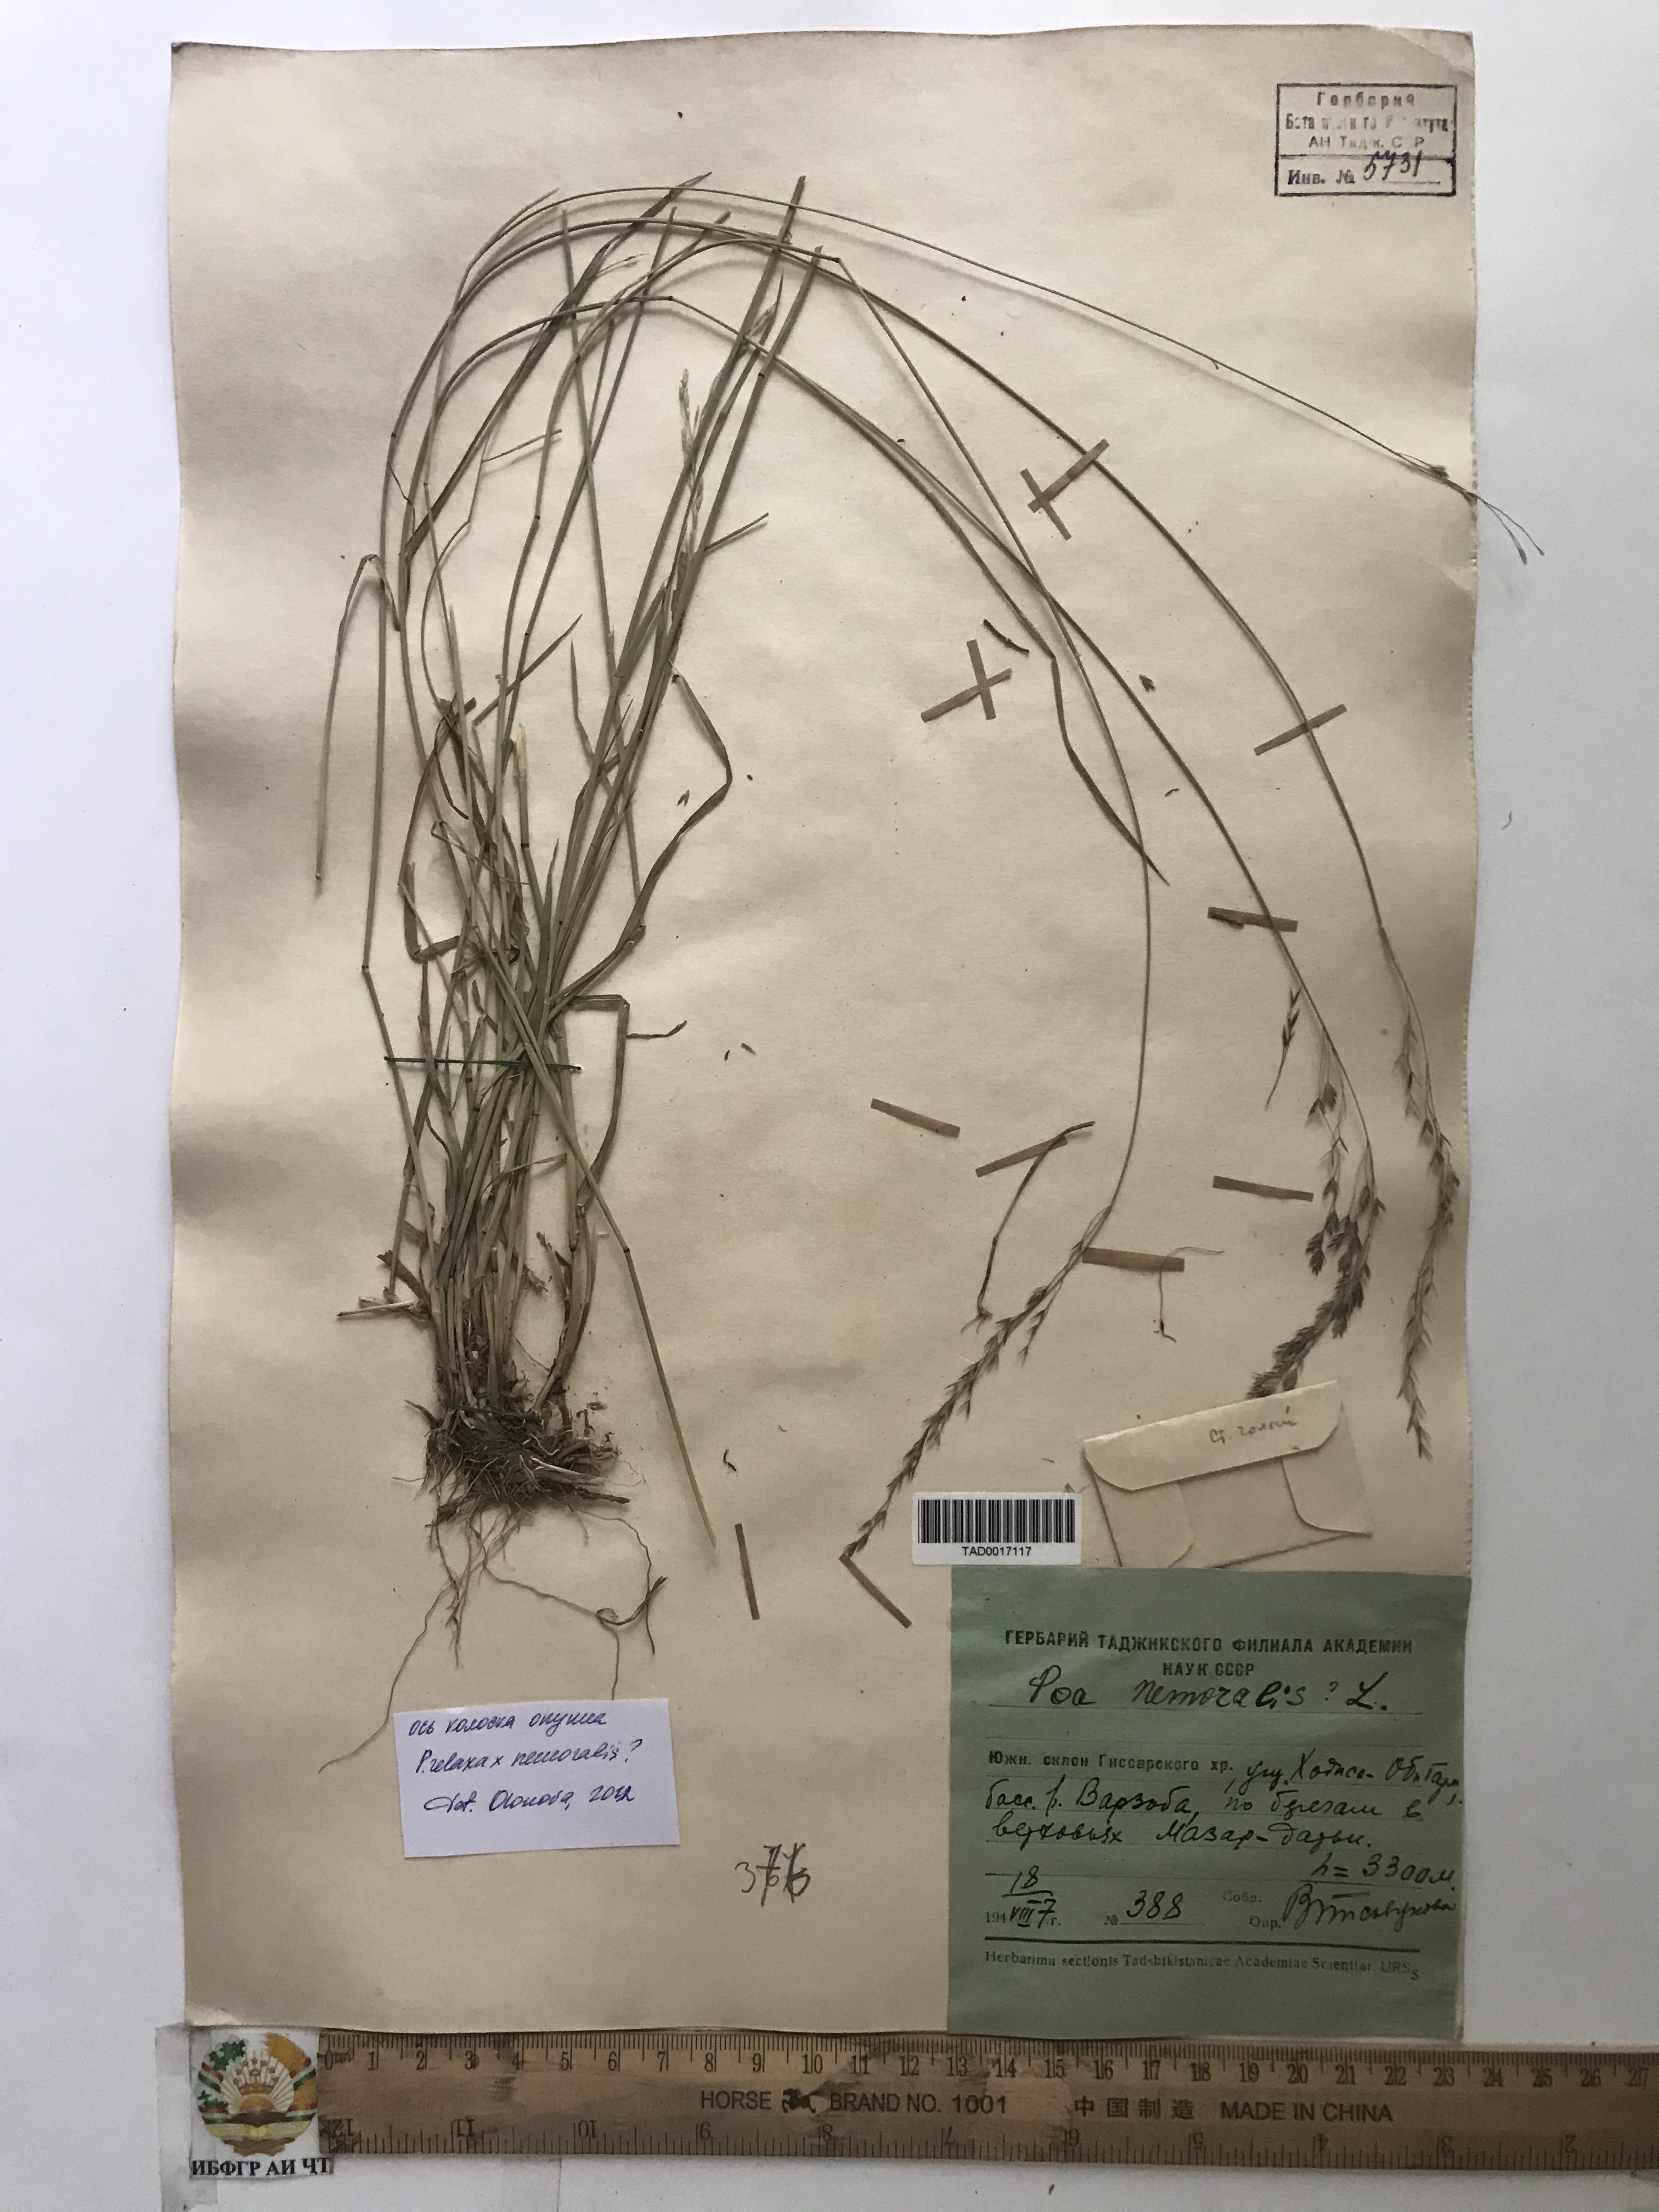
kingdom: Plantae
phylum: Tracheophyta
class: Liliopsida
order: Poales
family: Poaceae
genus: Poa
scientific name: Poa nemoralis
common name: Wood bluegrass
